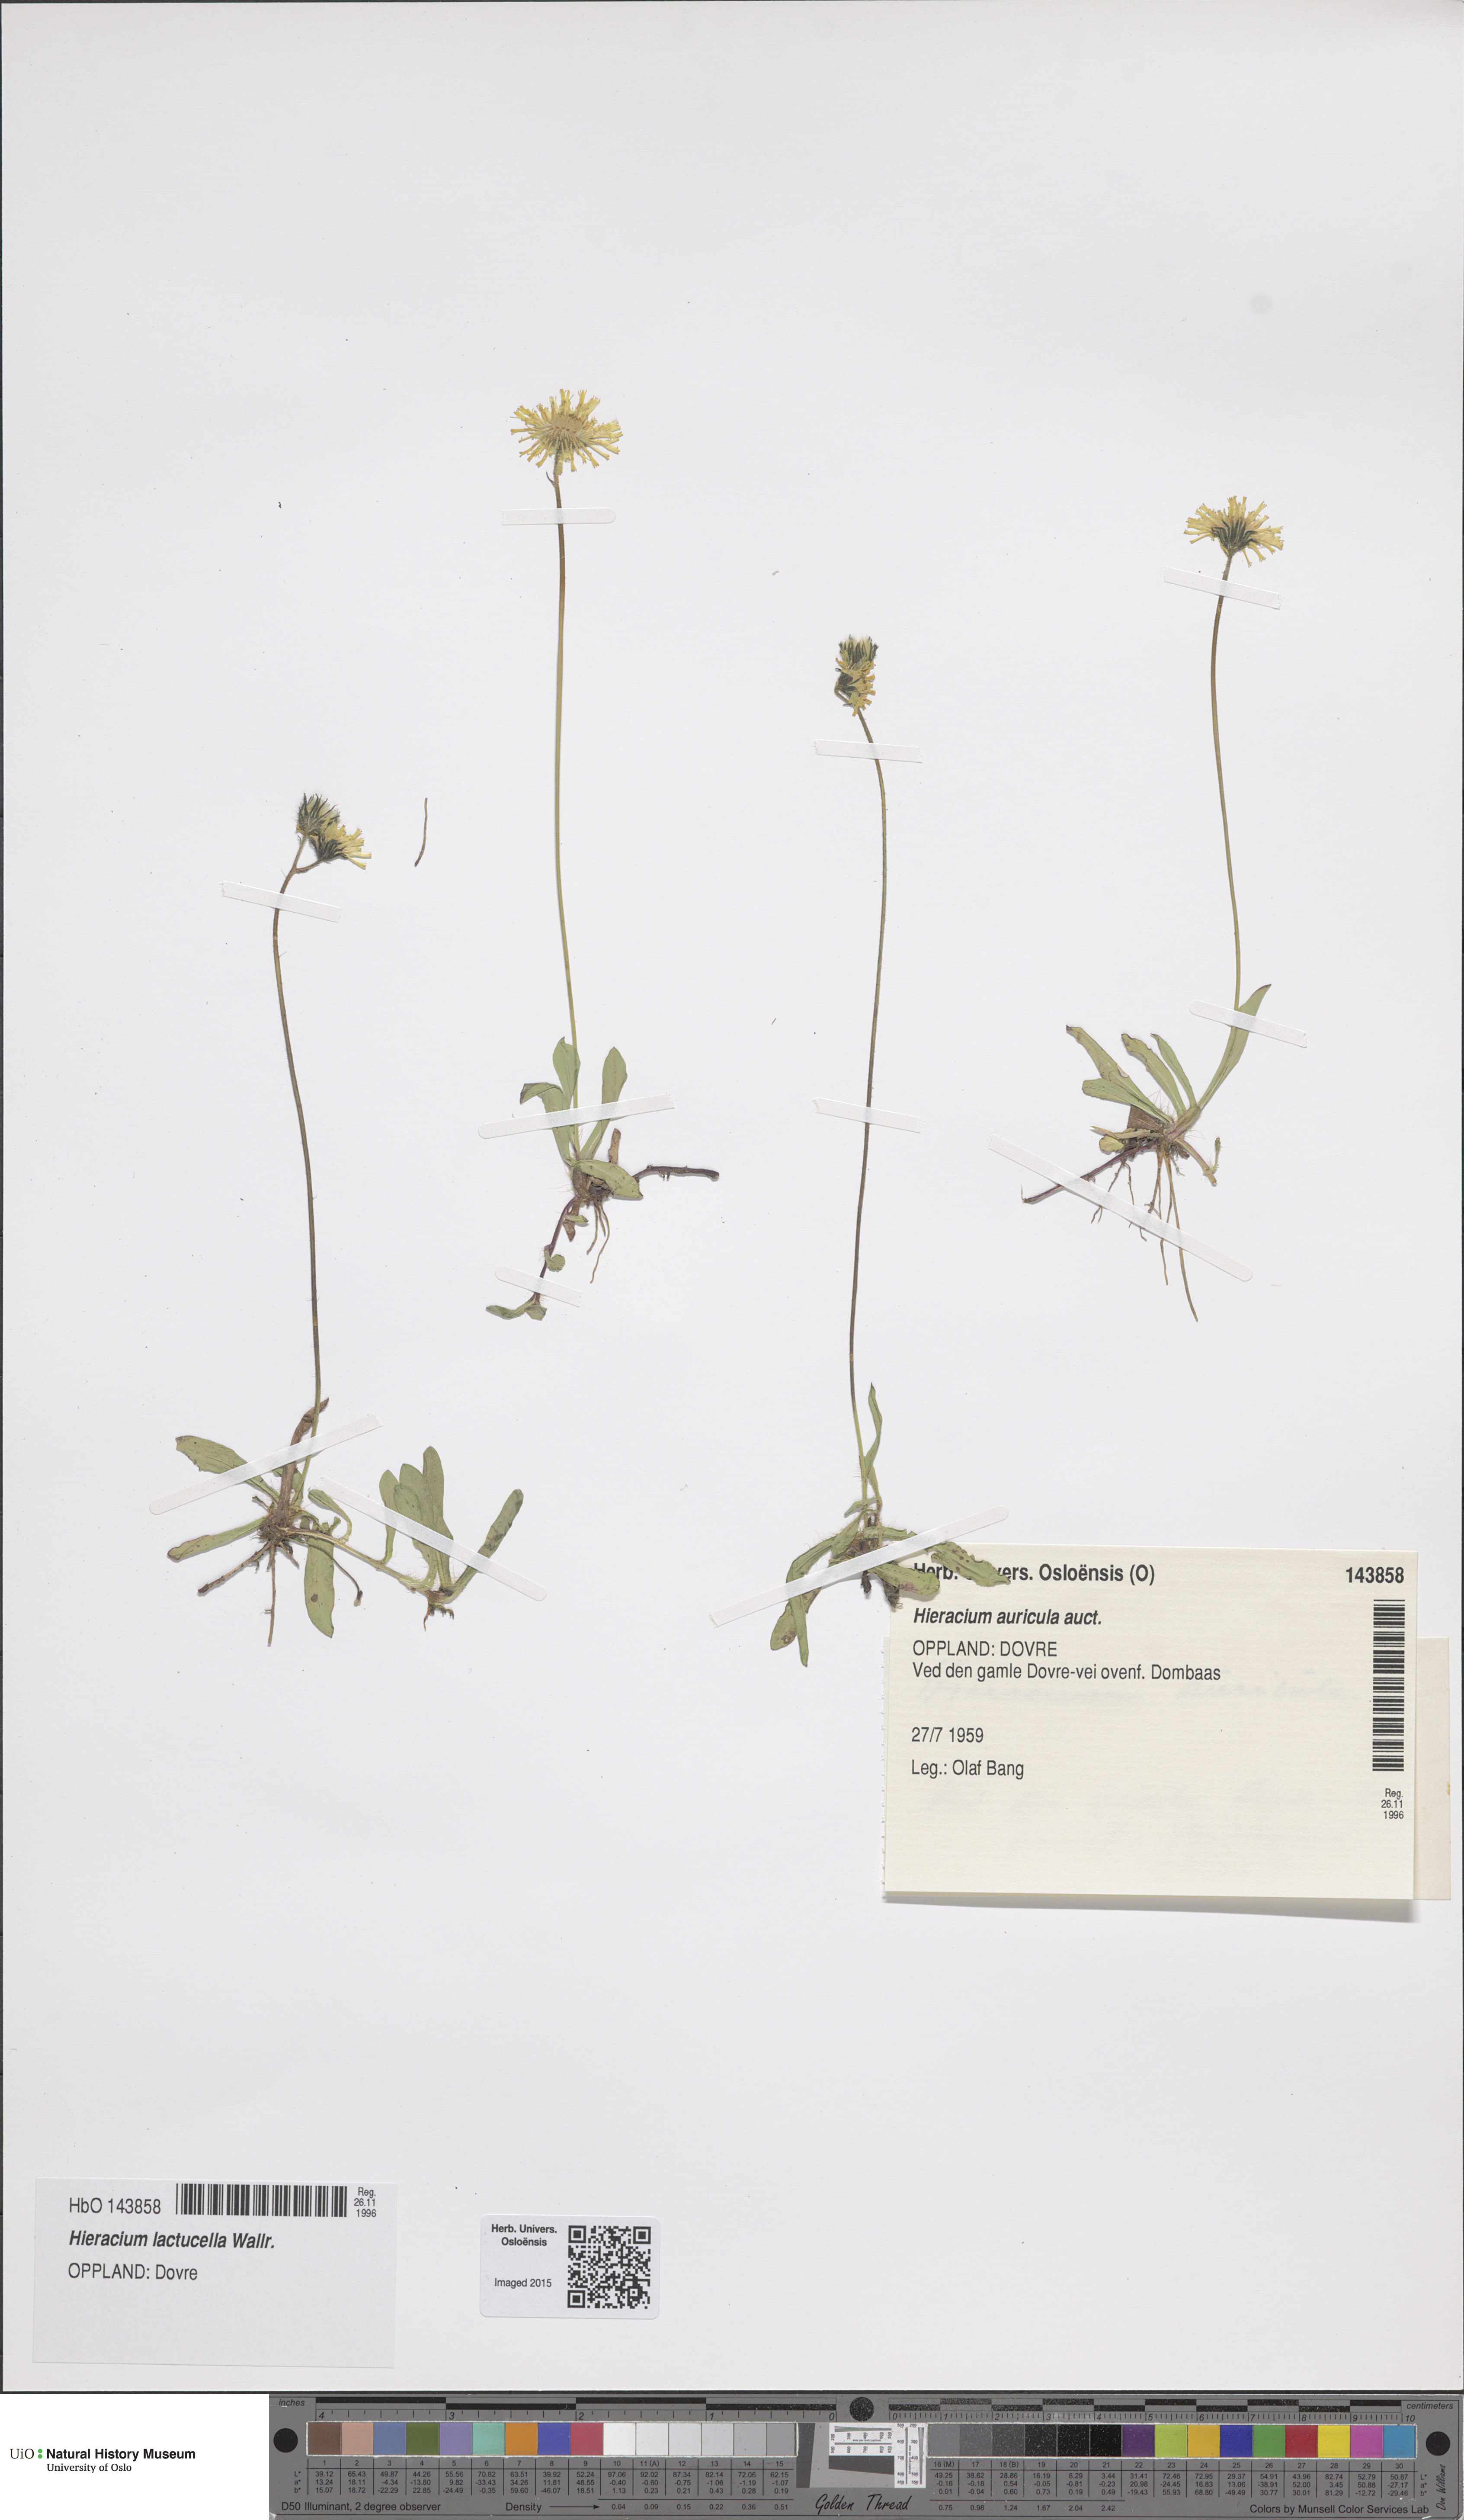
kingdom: Plantae
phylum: Tracheophyta
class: Magnoliopsida
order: Asterales
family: Asteraceae
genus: Pilosella
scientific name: Pilosella lactucella
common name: Glaucous fox-and-cubs
